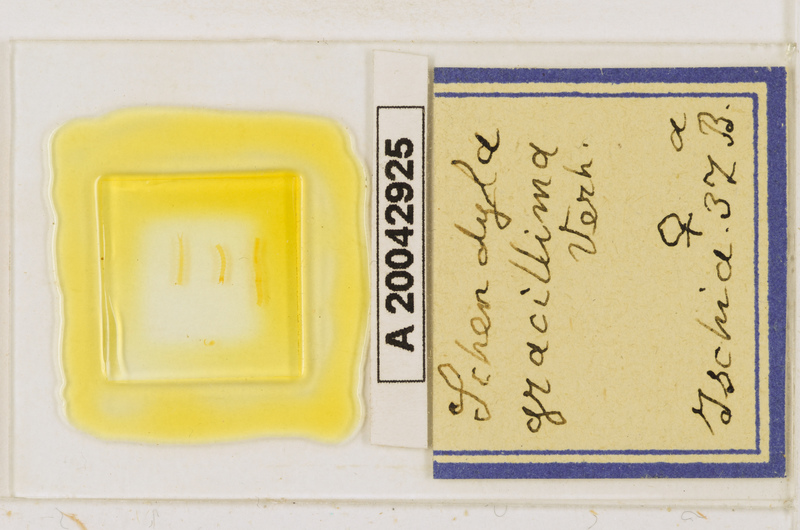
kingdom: Animalia
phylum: Arthropoda
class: Chilopoda
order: Geophilomorpha
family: Schendylidae
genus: Schendyla
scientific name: Schendyla gracillima
